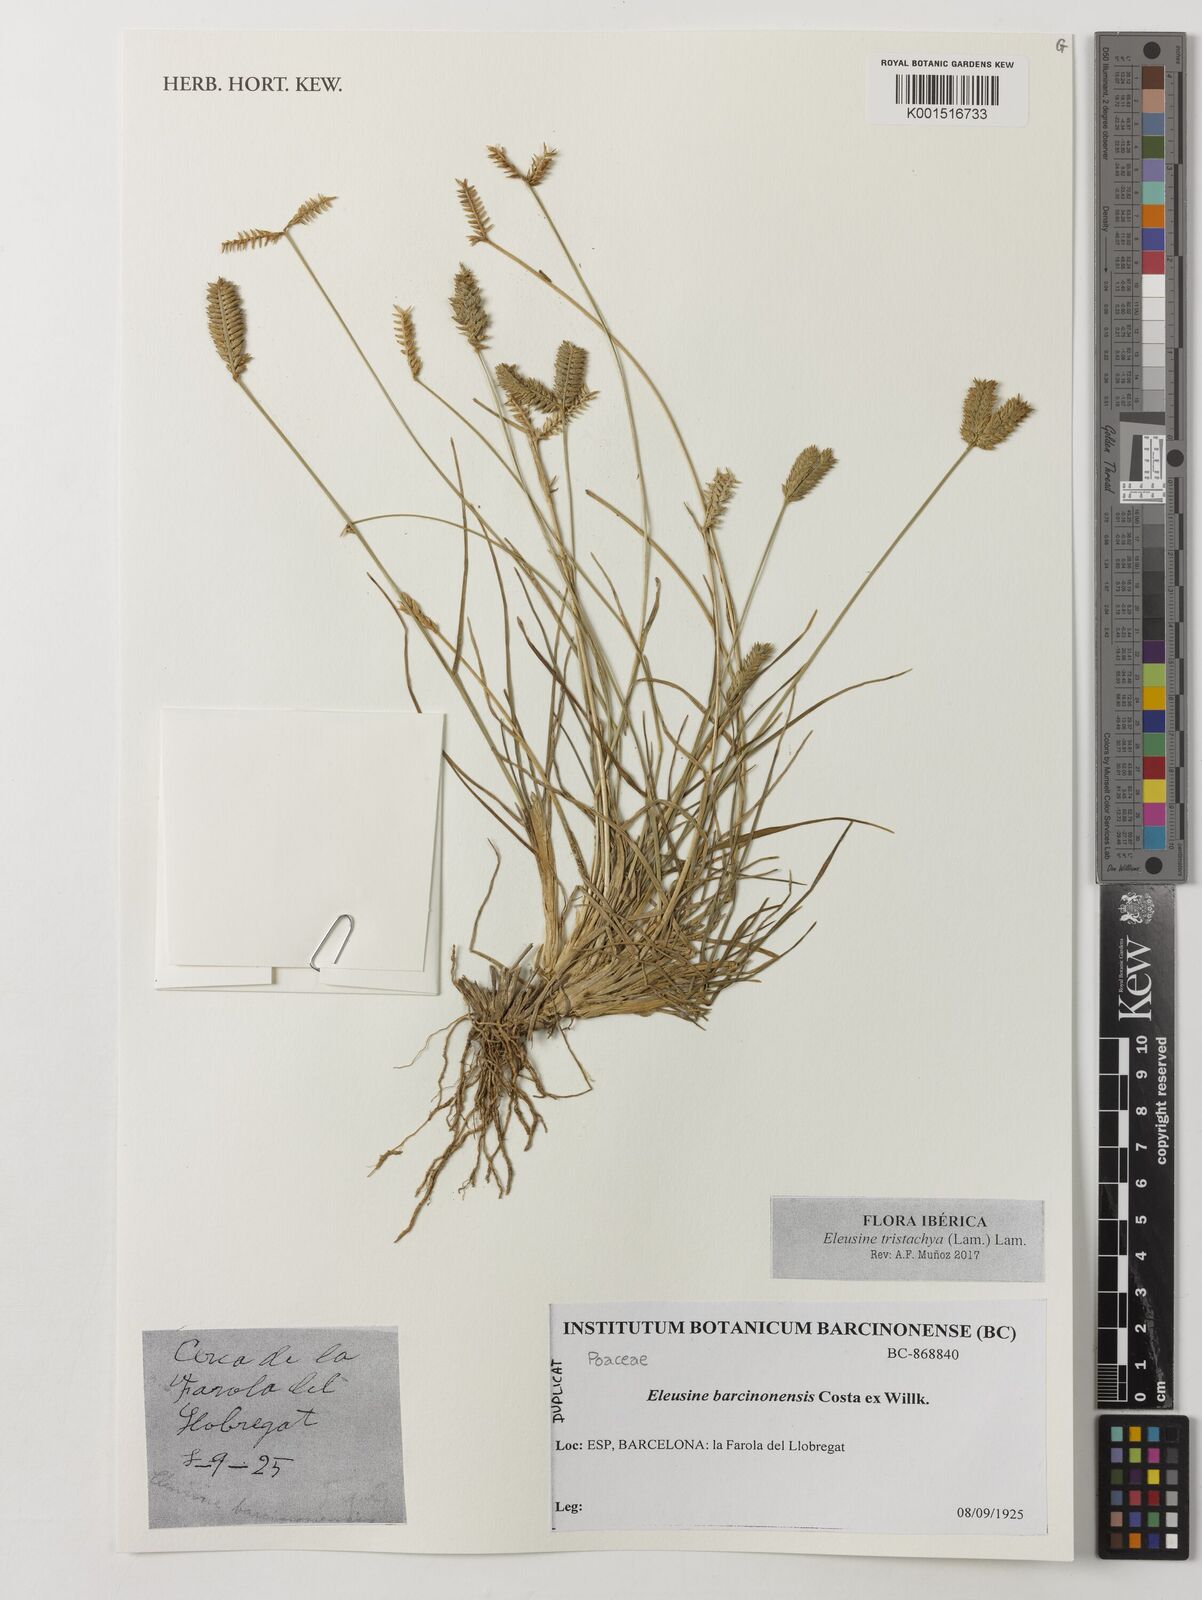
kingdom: Plantae
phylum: Tracheophyta
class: Liliopsida
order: Poales
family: Poaceae
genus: Eleusine
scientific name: Eleusine tristachya
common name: American yard-grass
